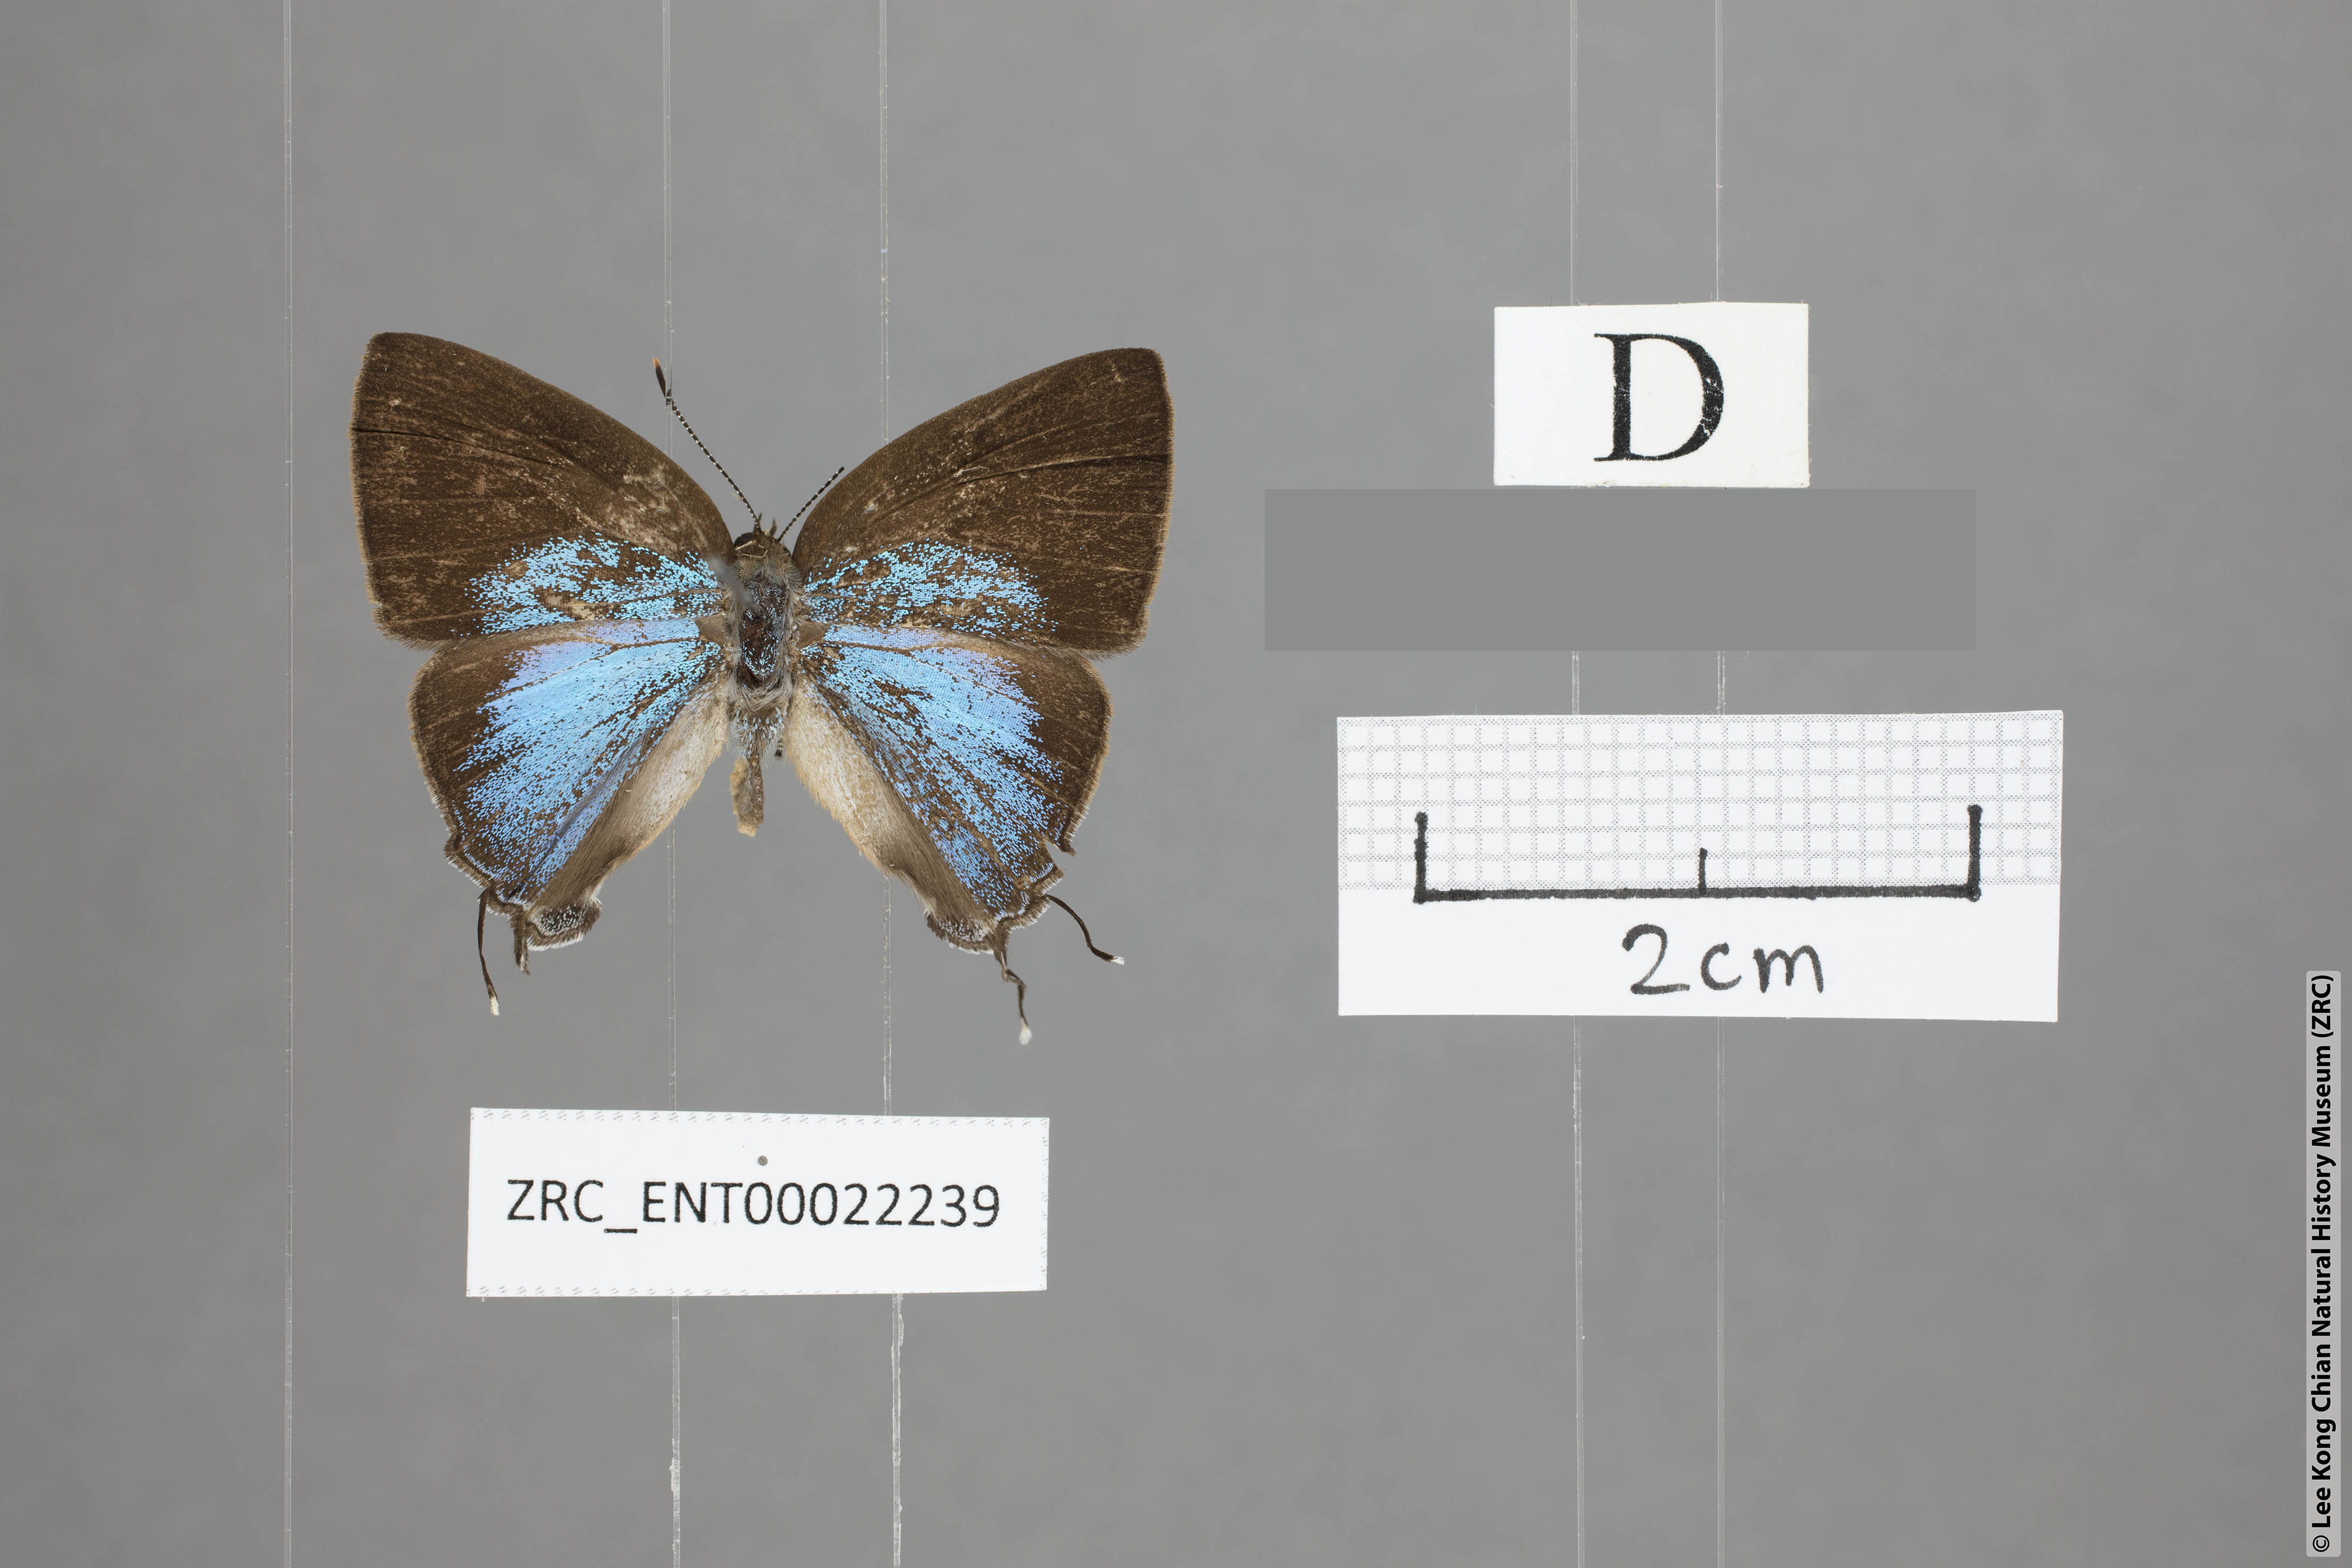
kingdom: Animalia
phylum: Arthropoda
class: Insecta
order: Lepidoptera
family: Lycaenidae
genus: Tajuria
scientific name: Tajuria yajna
